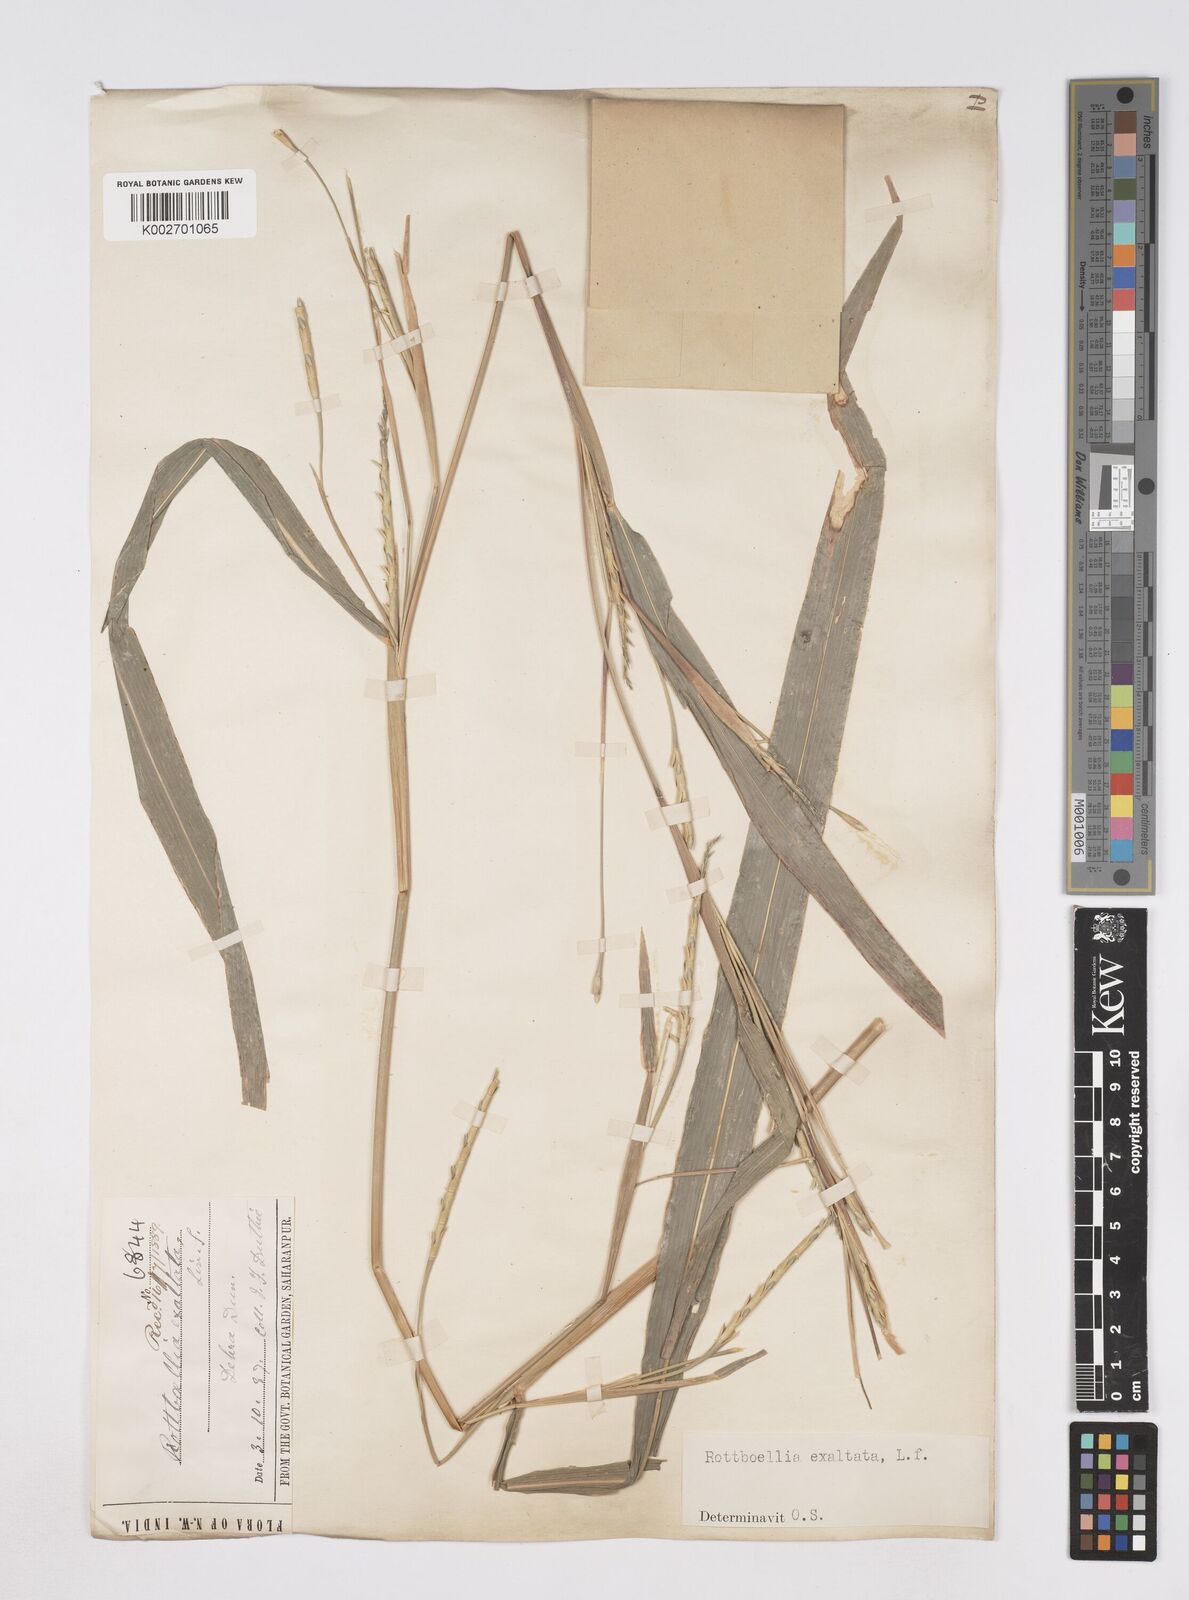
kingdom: Plantae
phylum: Tracheophyta
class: Liliopsida
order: Poales
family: Poaceae
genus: Ophiuros
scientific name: Ophiuros exaltatus
